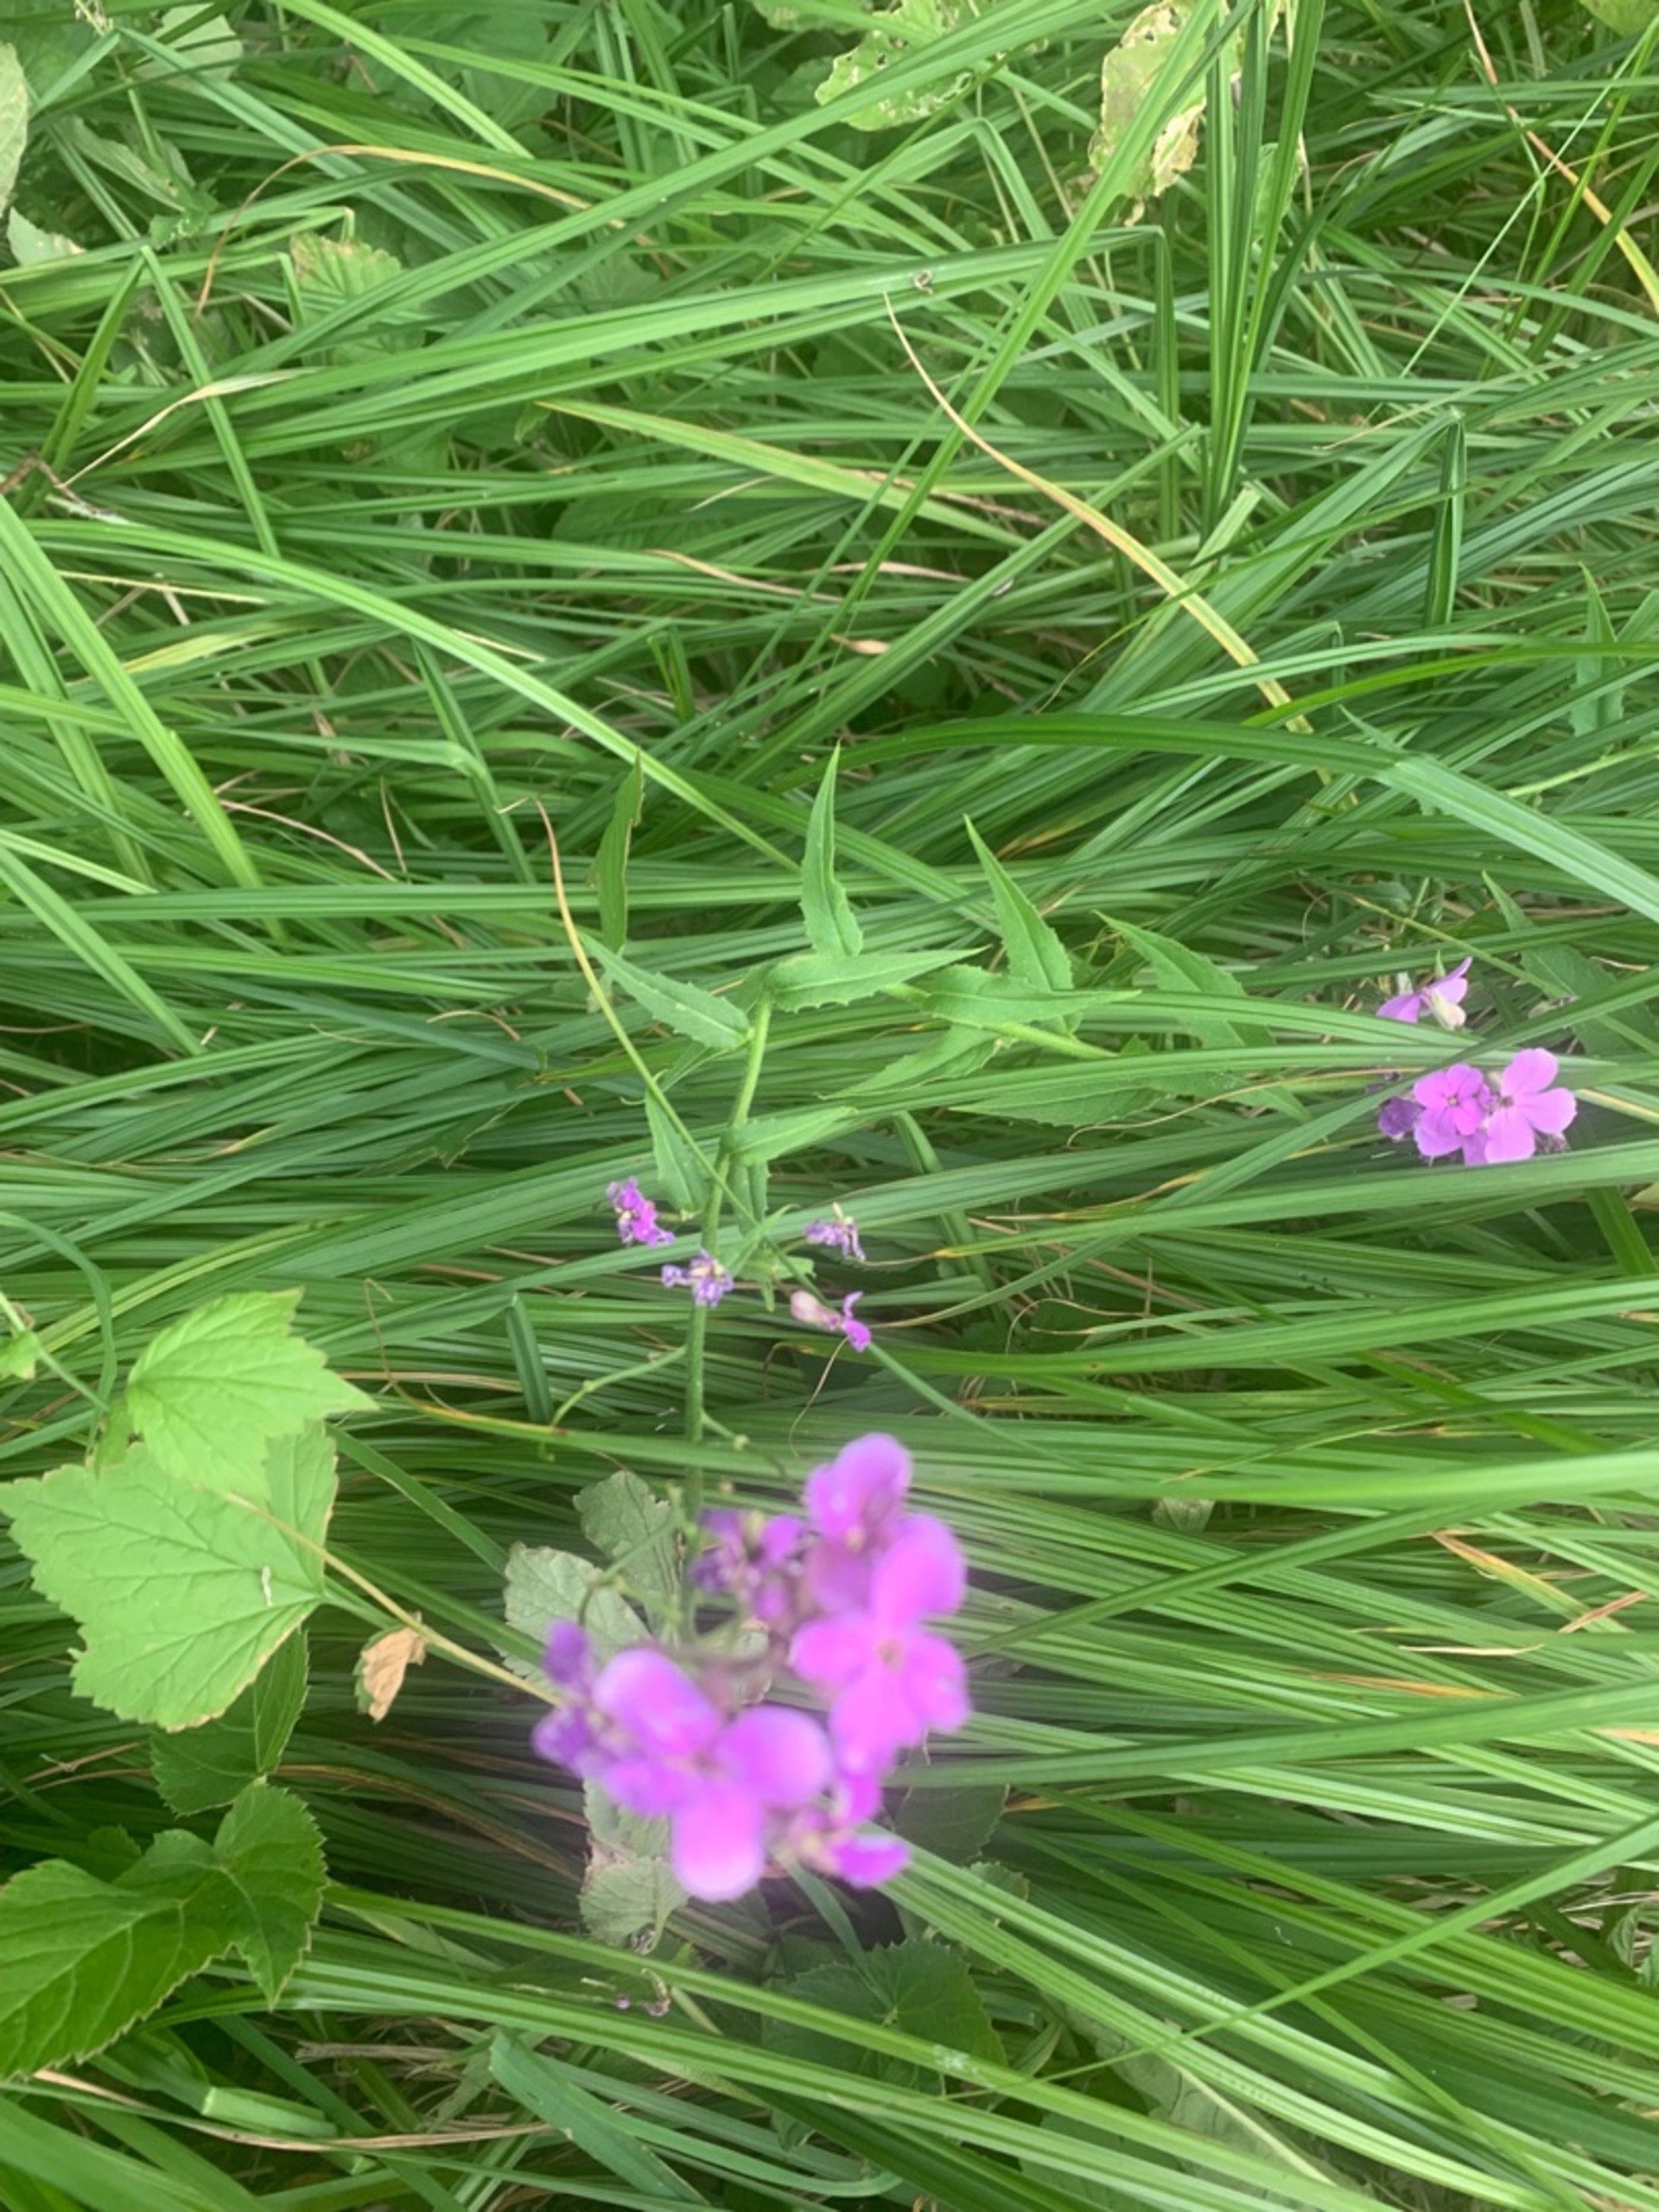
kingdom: Plantae
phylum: Tracheophyta
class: Magnoliopsida
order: Brassicales
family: Brassicaceae
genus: Hesperis
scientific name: Hesperis matronalis
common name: Aftenstjerne
